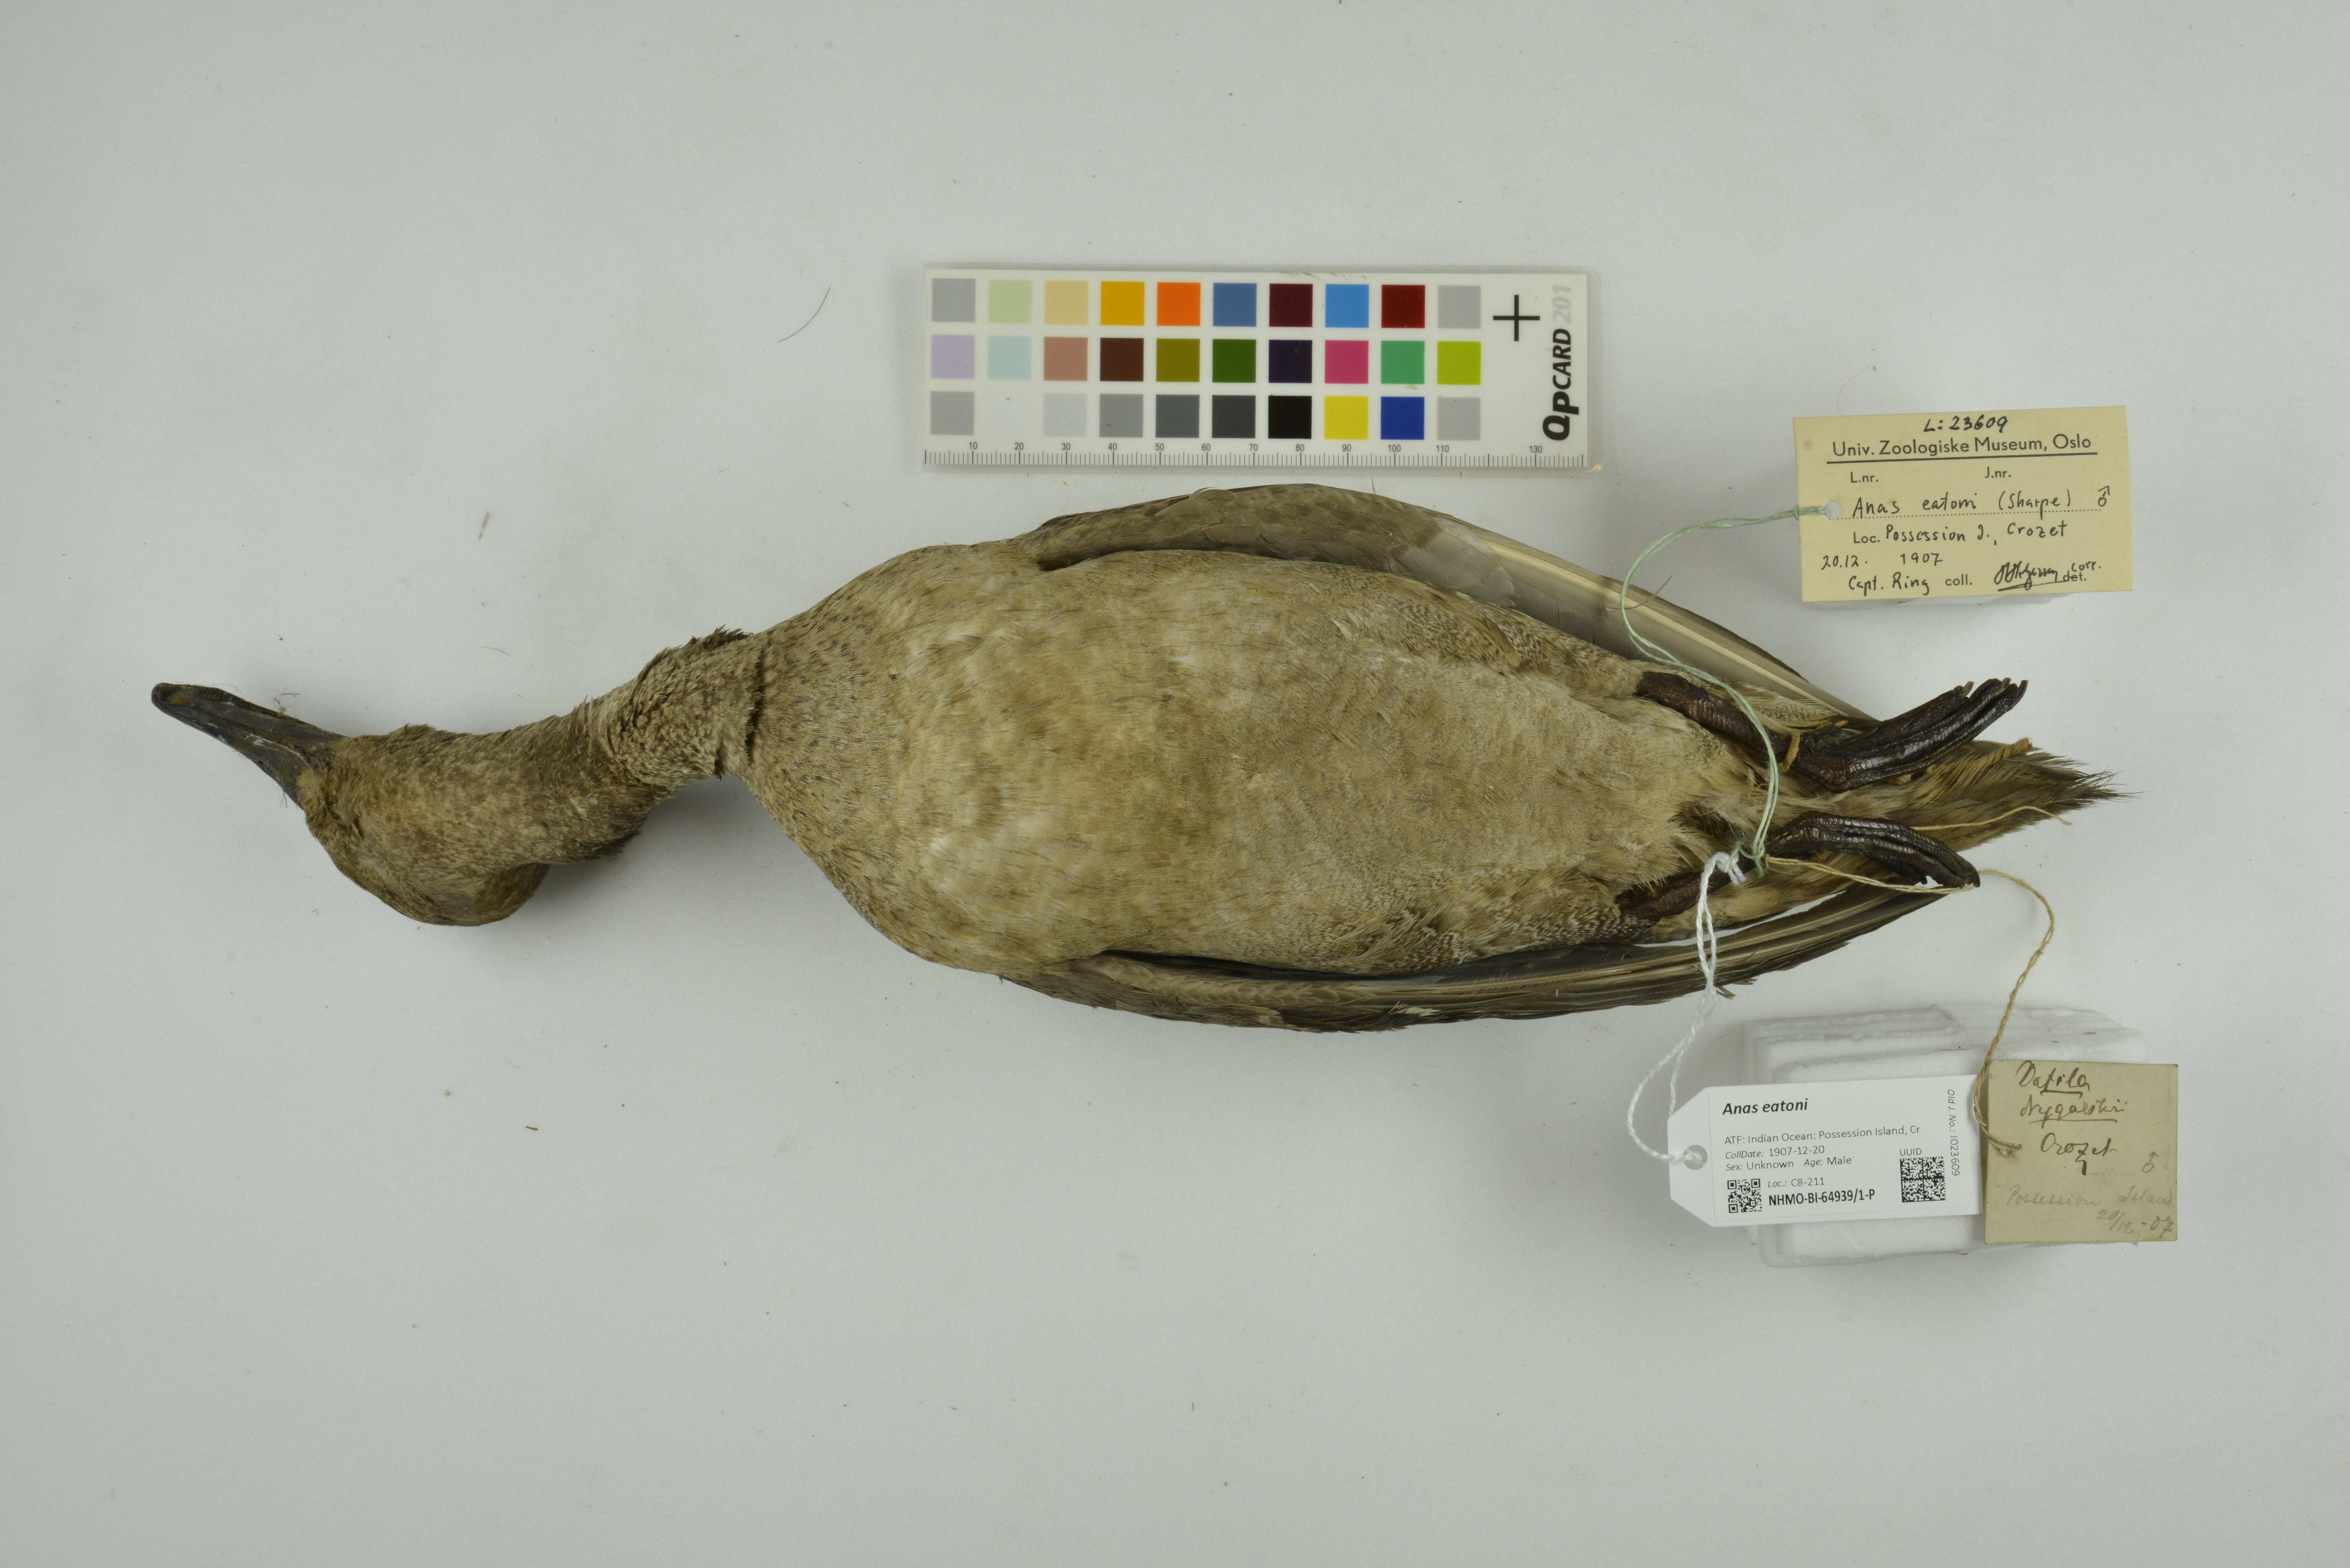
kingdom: Animalia
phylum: Chordata
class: Aves
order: Anseriformes
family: Anatidae
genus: Anas
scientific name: Anas eatoni
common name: Eaton's pintail
